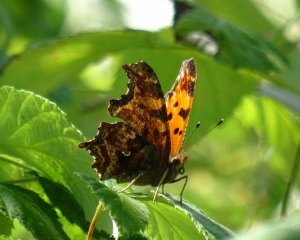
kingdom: Animalia
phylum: Arthropoda
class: Insecta
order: Lepidoptera
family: Nymphalidae
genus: Polygonia
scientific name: Polygonia comma
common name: Eastern Comma
